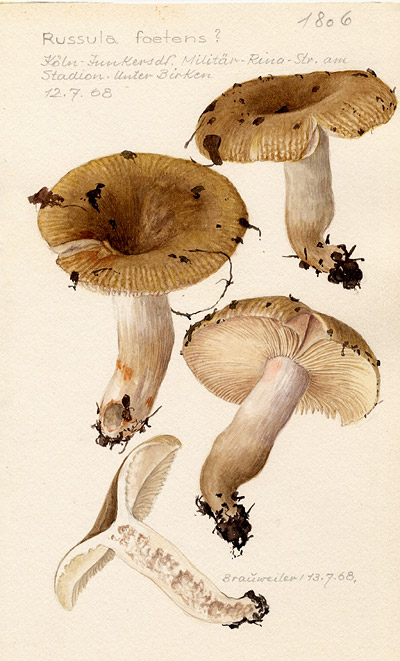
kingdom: Fungi
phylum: Basidiomycota
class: Agaricomycetes
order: Russulales
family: Russulaceae
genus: Russula
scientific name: Russula foetens
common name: Foetid russula
